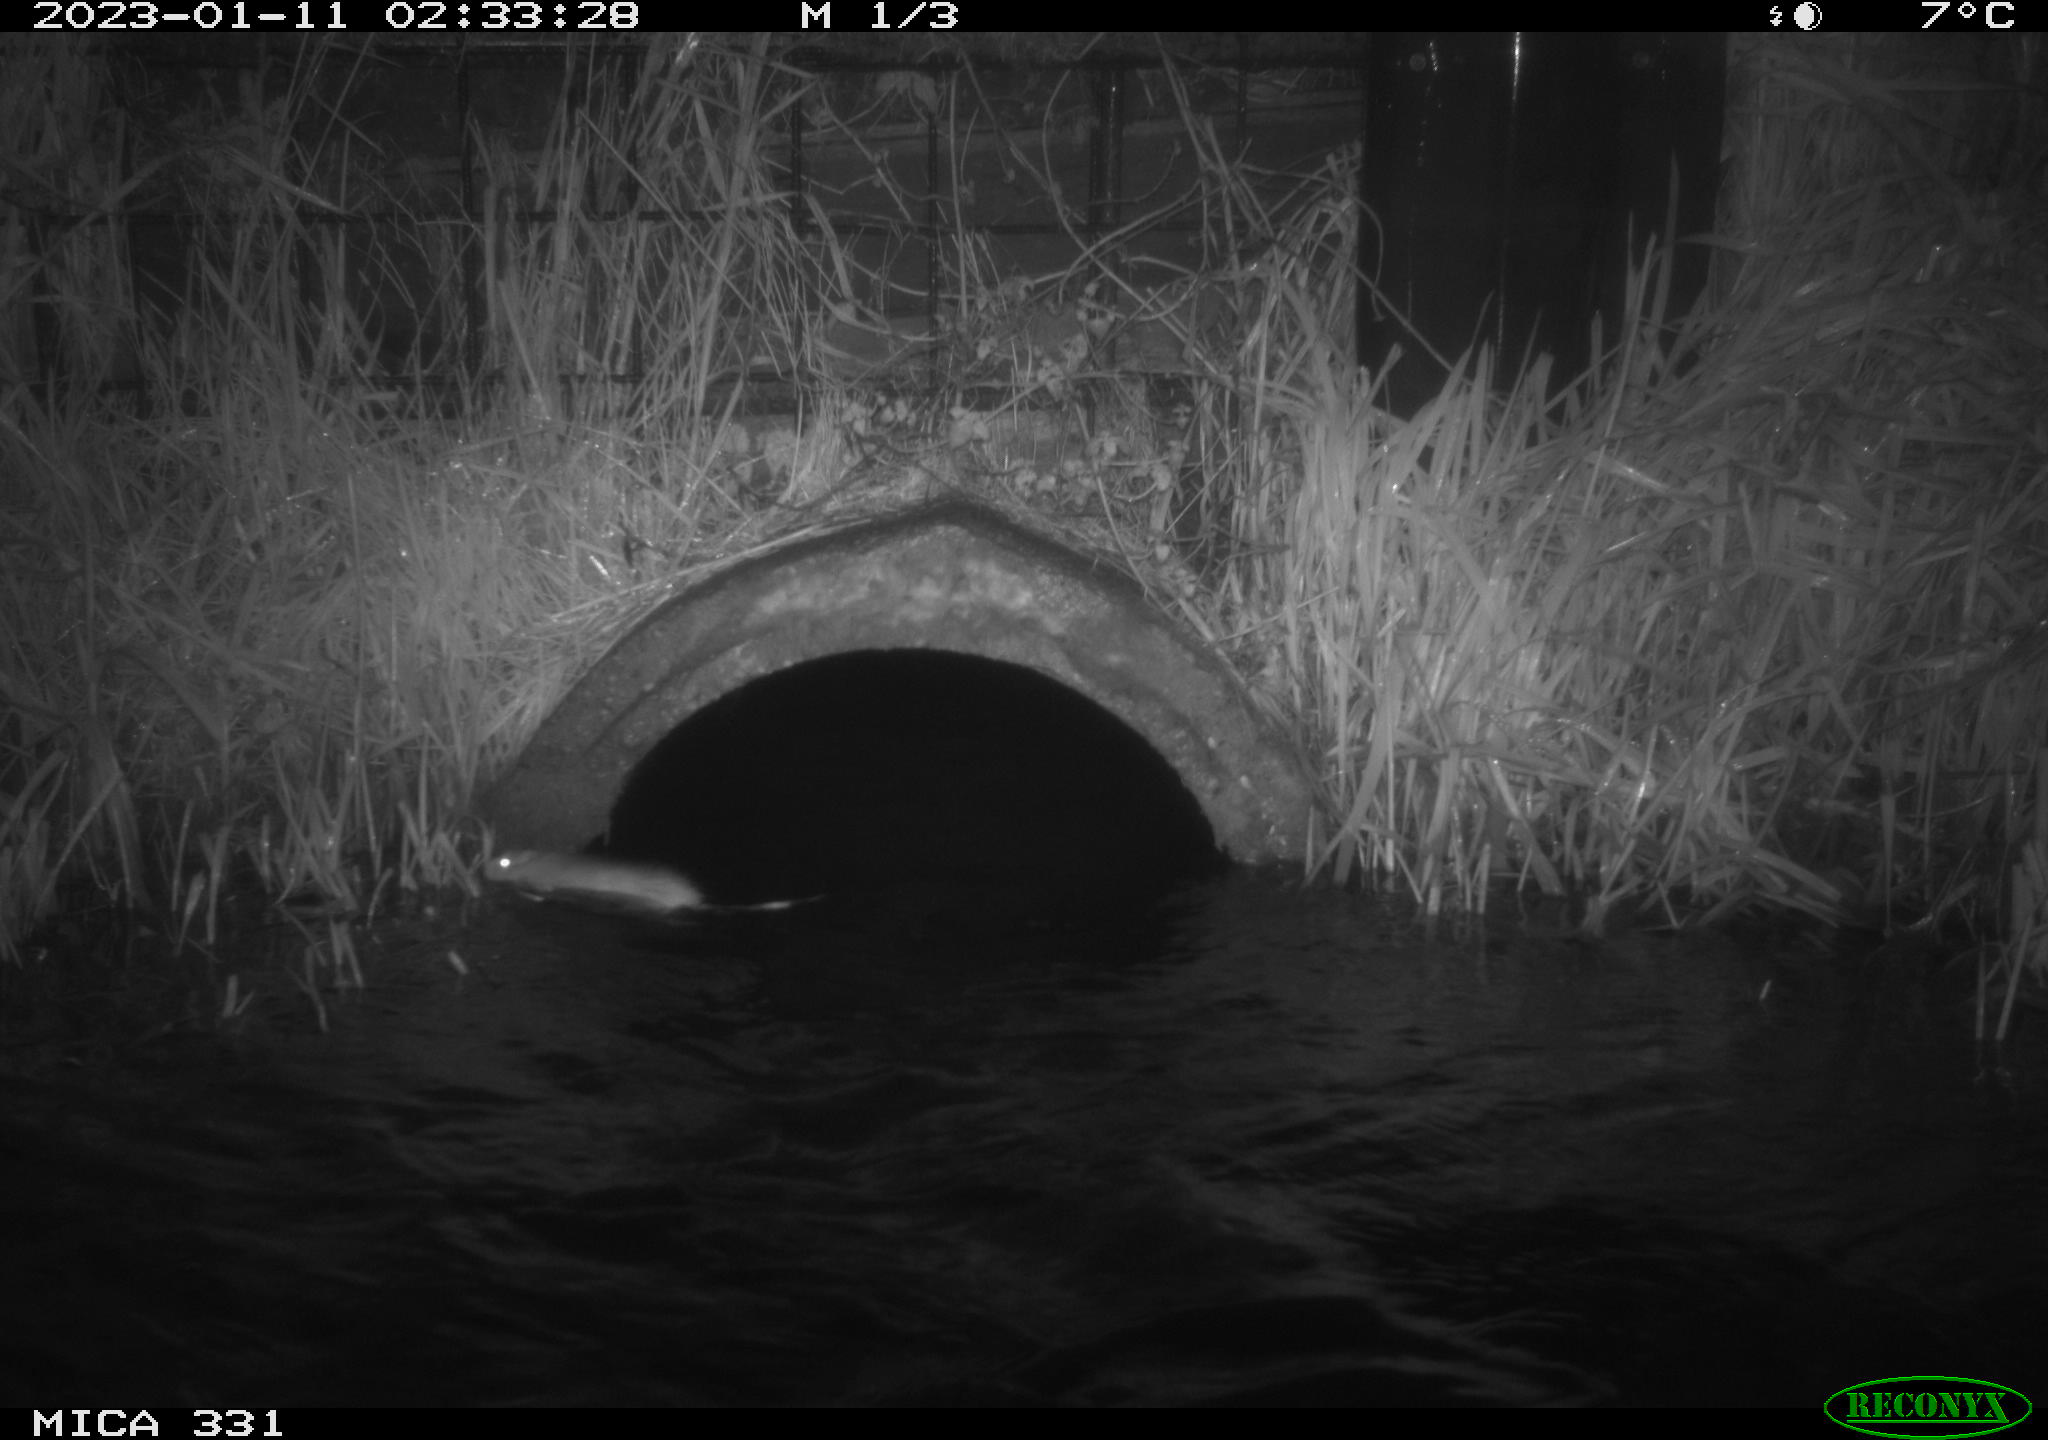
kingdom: Animalia
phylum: Chordata
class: Mammalia
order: Rodentia
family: Muridae
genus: Rattus
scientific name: Rattus norvegicus
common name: Brown rat
